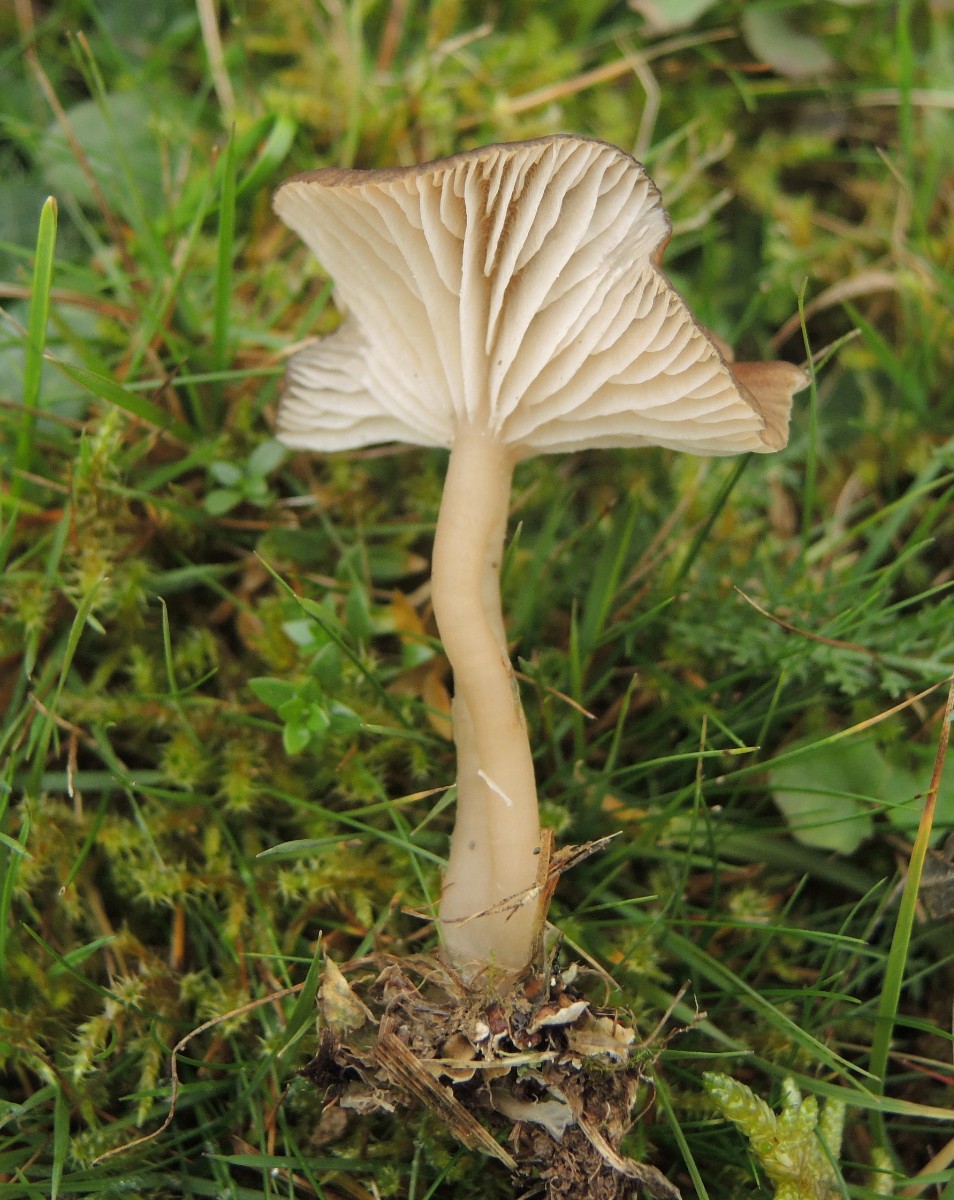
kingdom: Fungi
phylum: Basidiomycota
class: Agaricomycetes
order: Agaricales
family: Tricholomataceae
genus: Gamundia
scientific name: Gamundia xerophila
